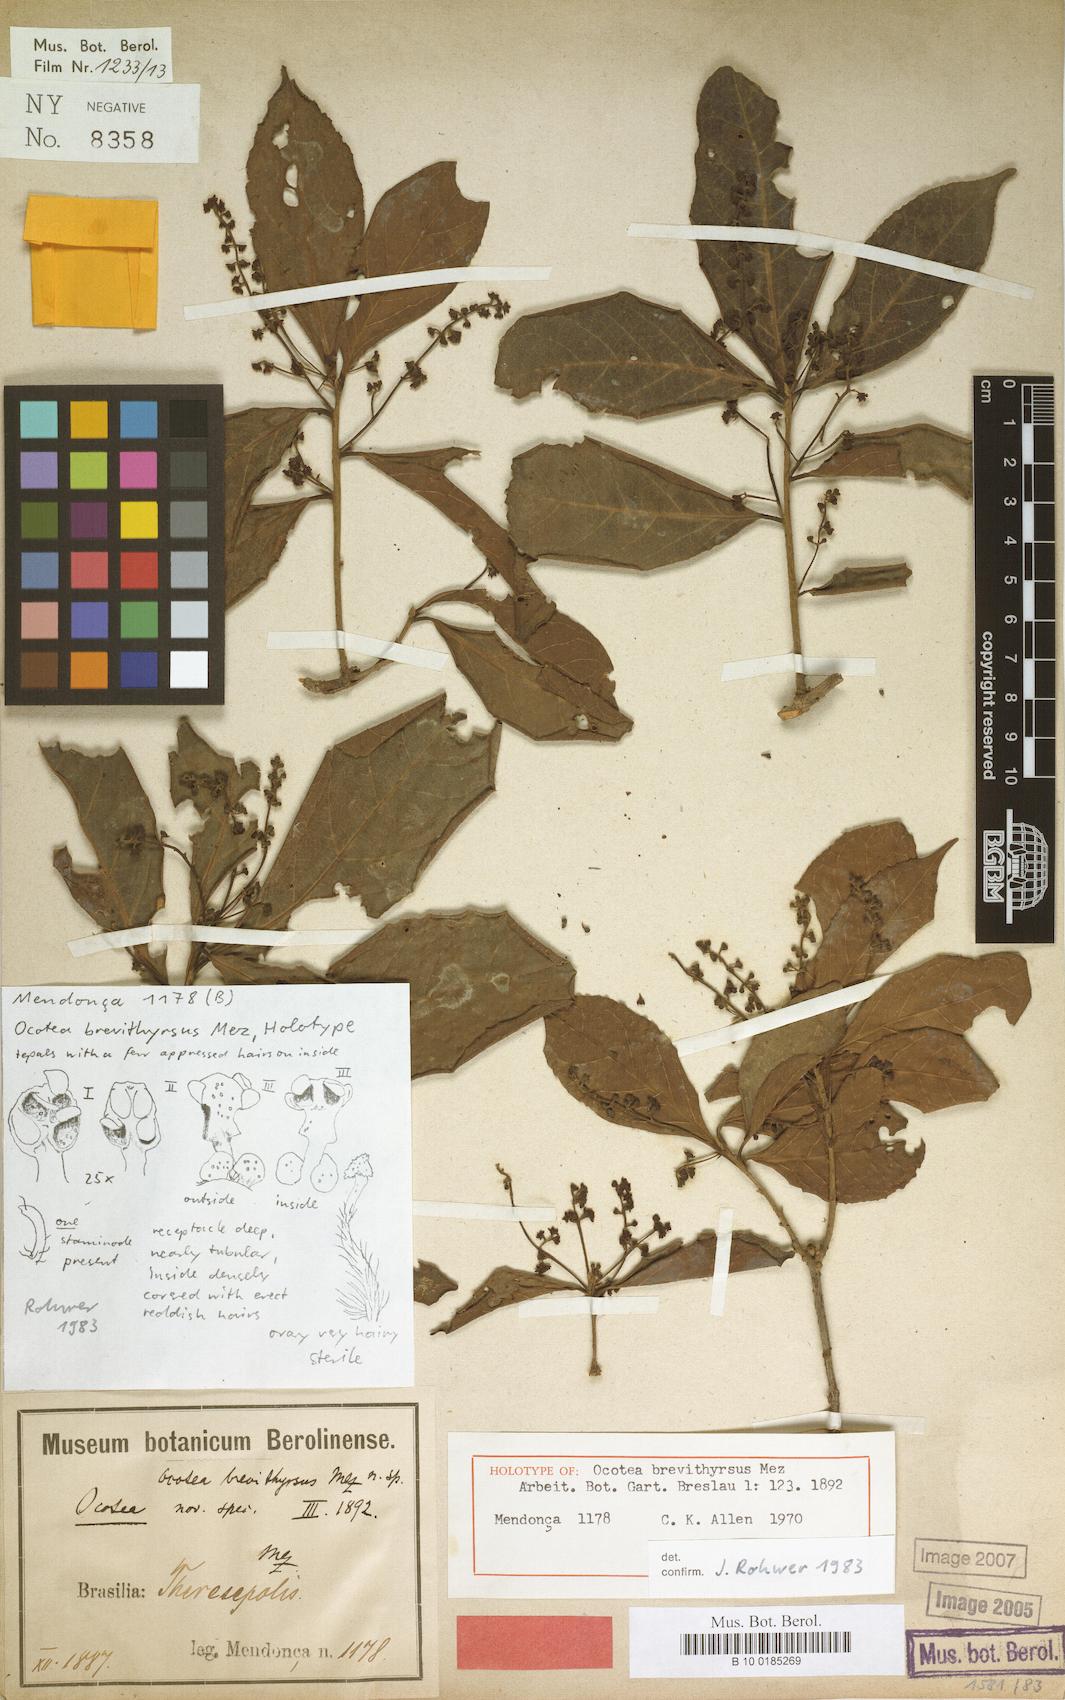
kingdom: Plantae
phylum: Tracheophyta
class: Magnoliopsida
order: Laurales
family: Lauraceae
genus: Mespilodaphne
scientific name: Mespilodaphne glauca
